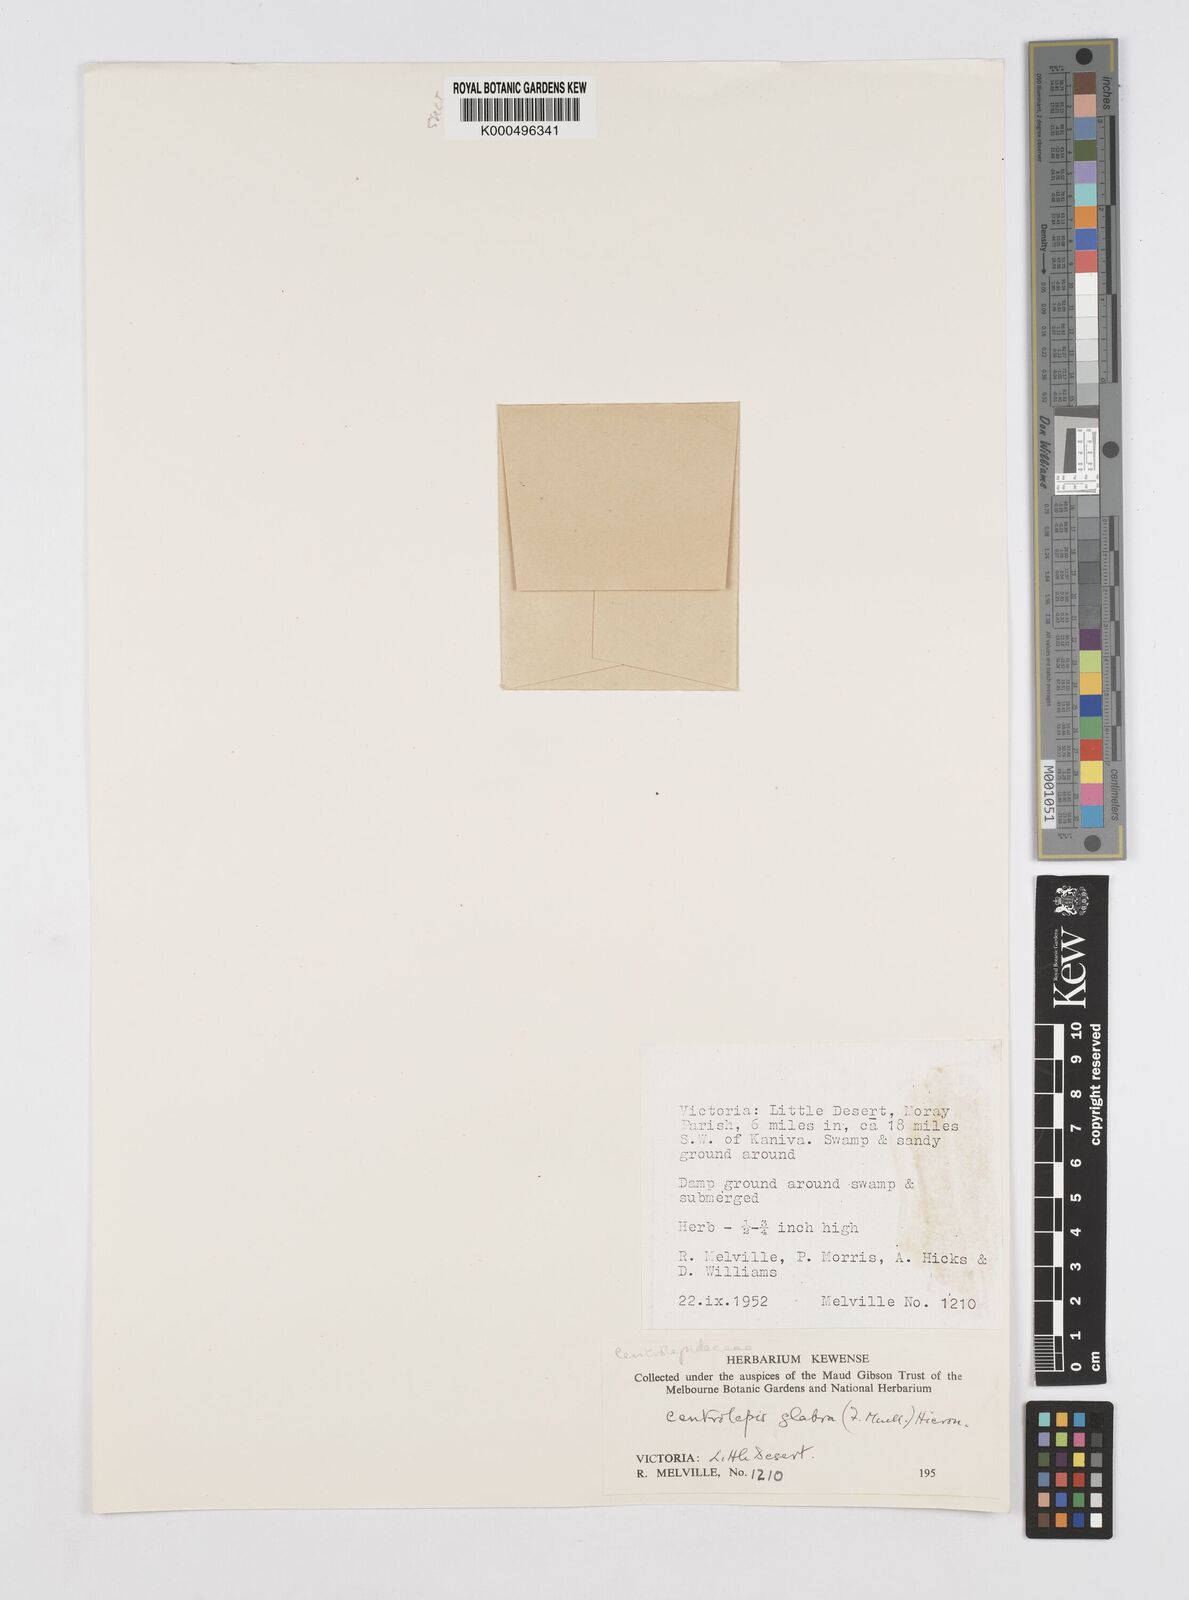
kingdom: Plantae
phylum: Tracheophyta
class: Liliopsida
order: Poales
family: Restionaceae
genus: Centrolepis
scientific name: Centrolepis glabra
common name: Smooth centrolepis
